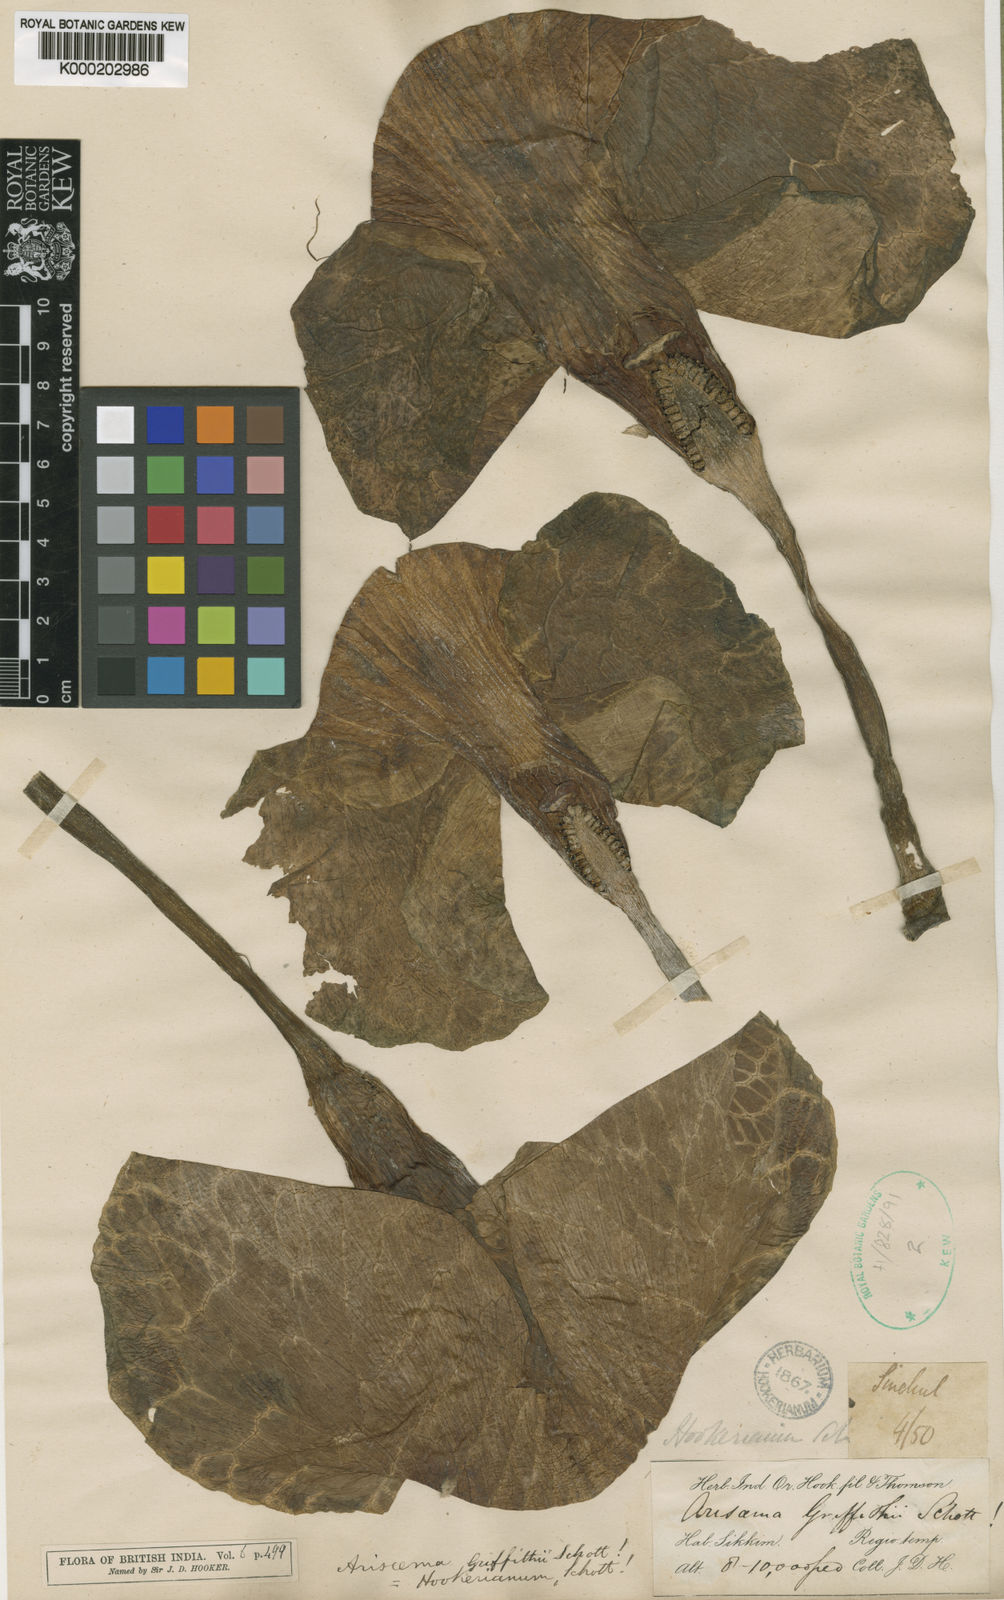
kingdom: Plantae
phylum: Tracheophyta
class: Liliopsida
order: Alismatales
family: Araceae
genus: Arisaema
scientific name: Arisaema griffithii
